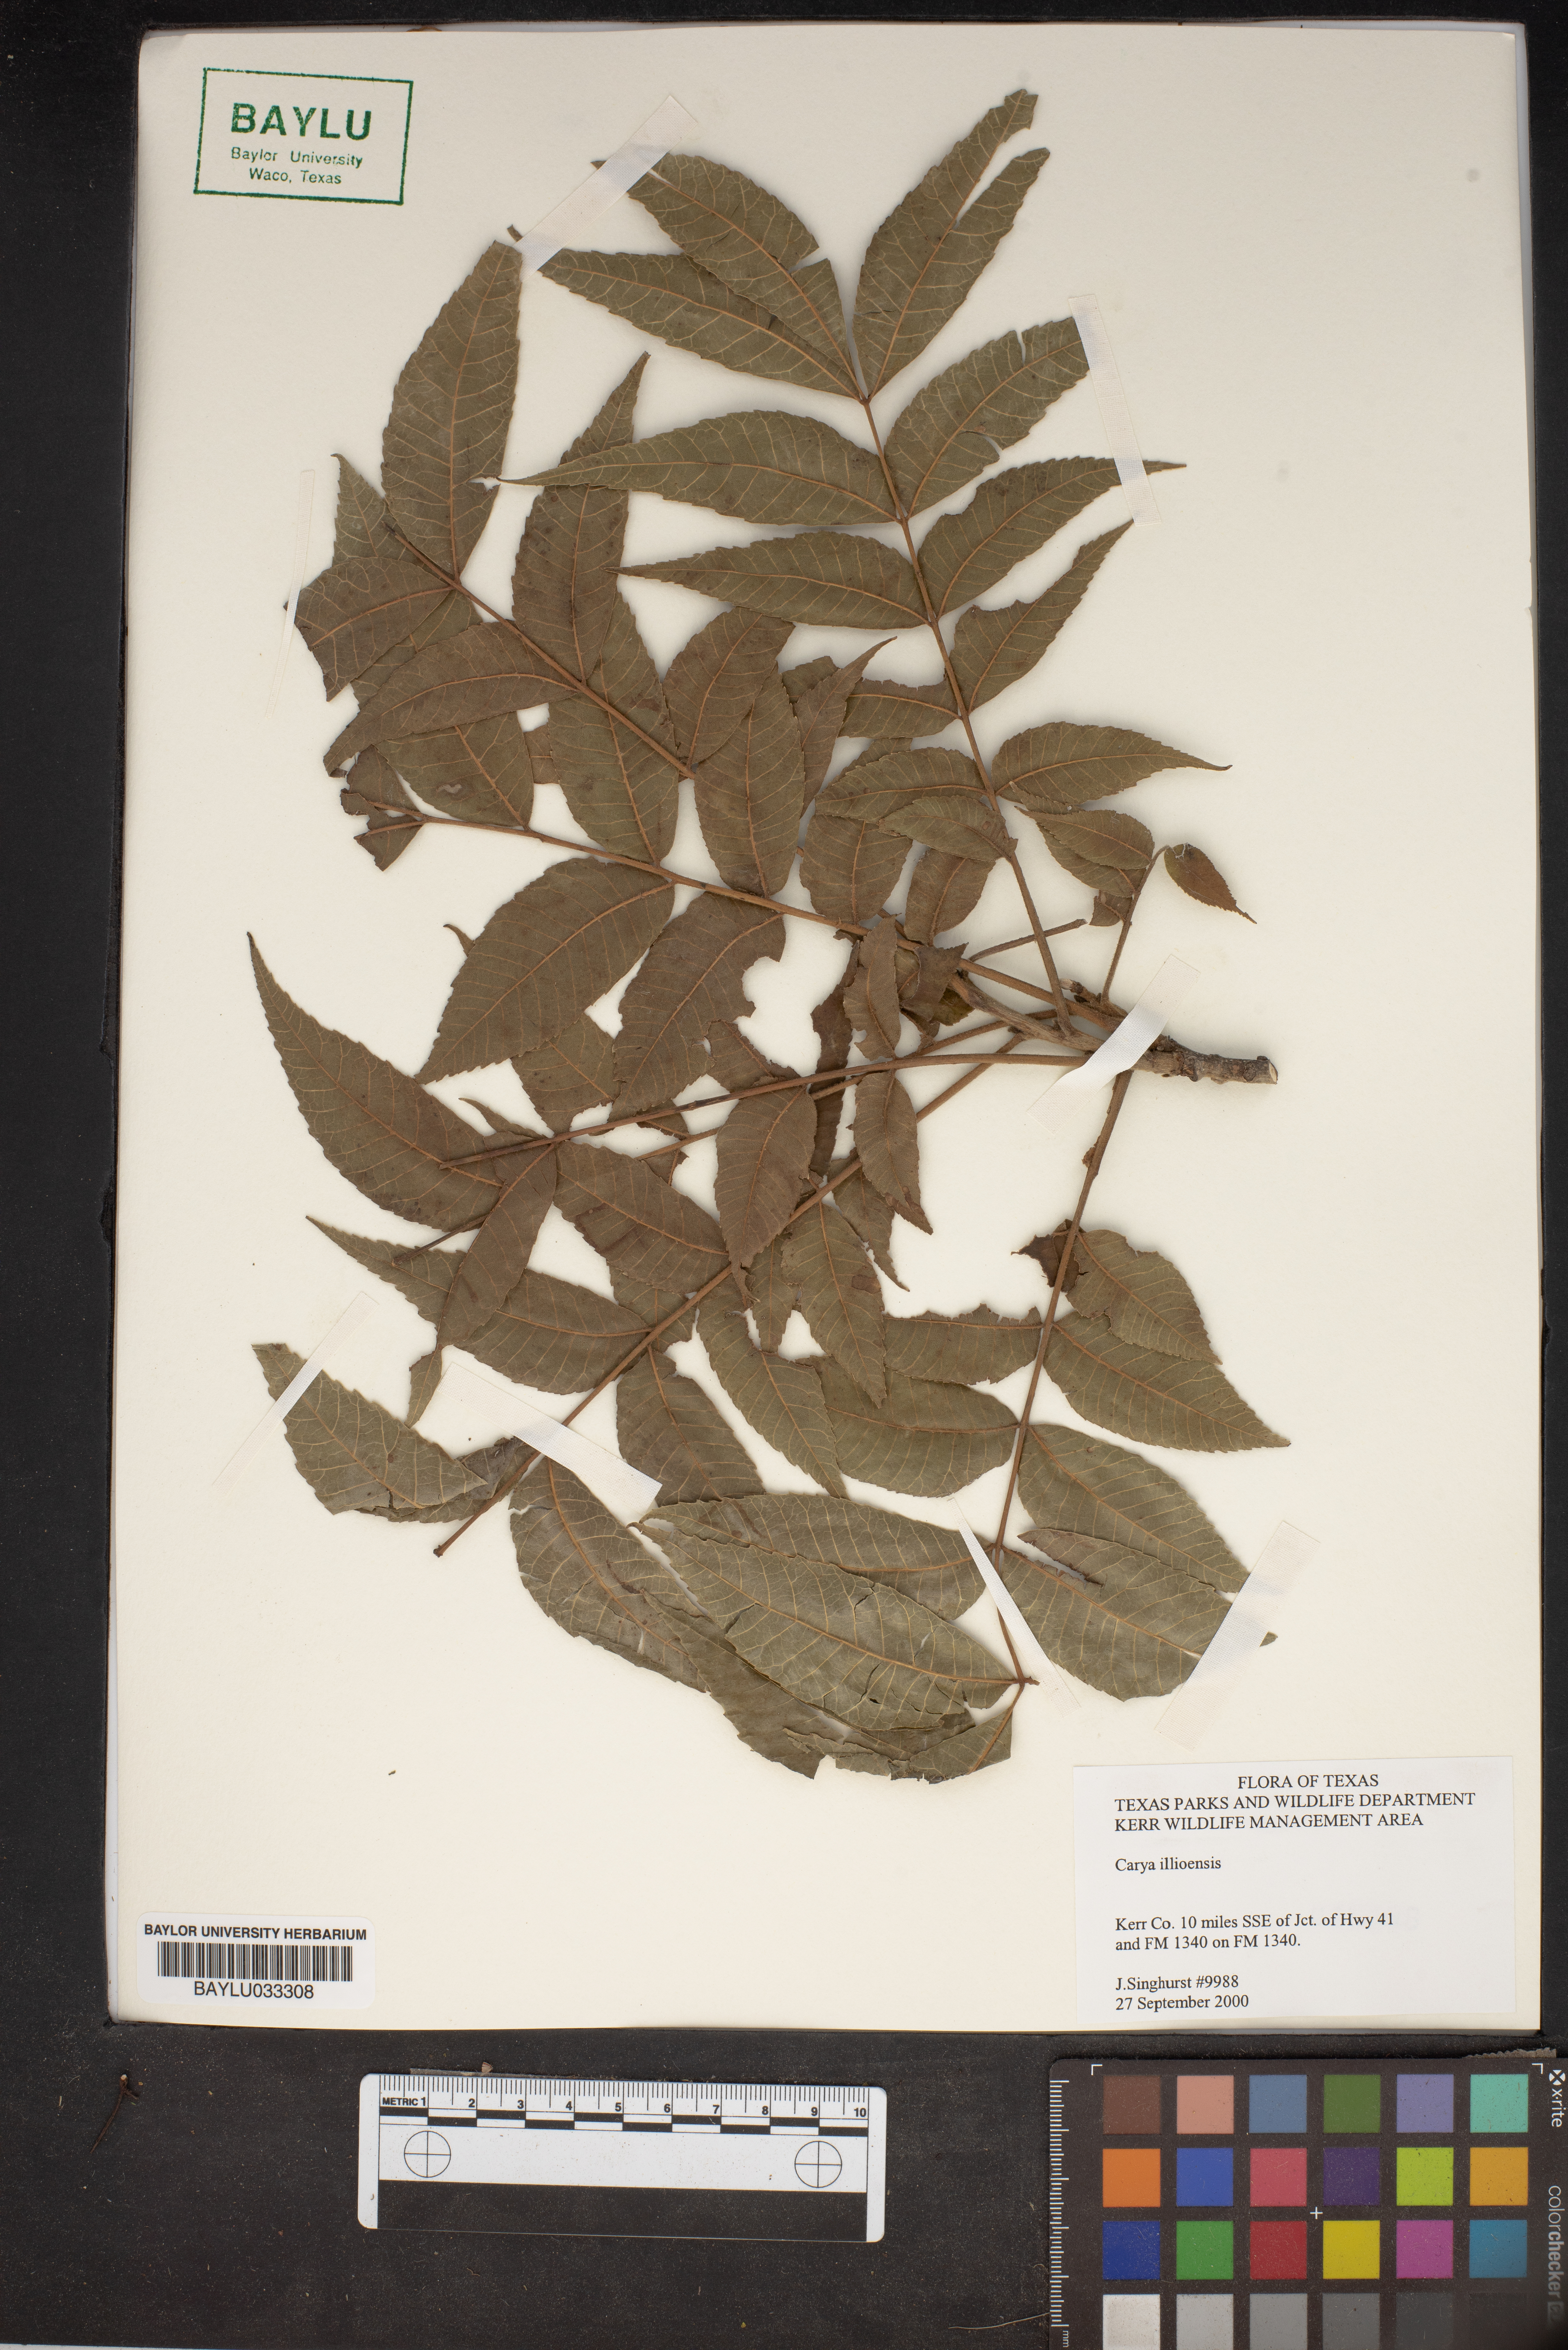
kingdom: Plantae
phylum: Tracheophyta
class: Magnoliopsida
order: Fagales
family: Juglandaceae
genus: Carya
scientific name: Carya
